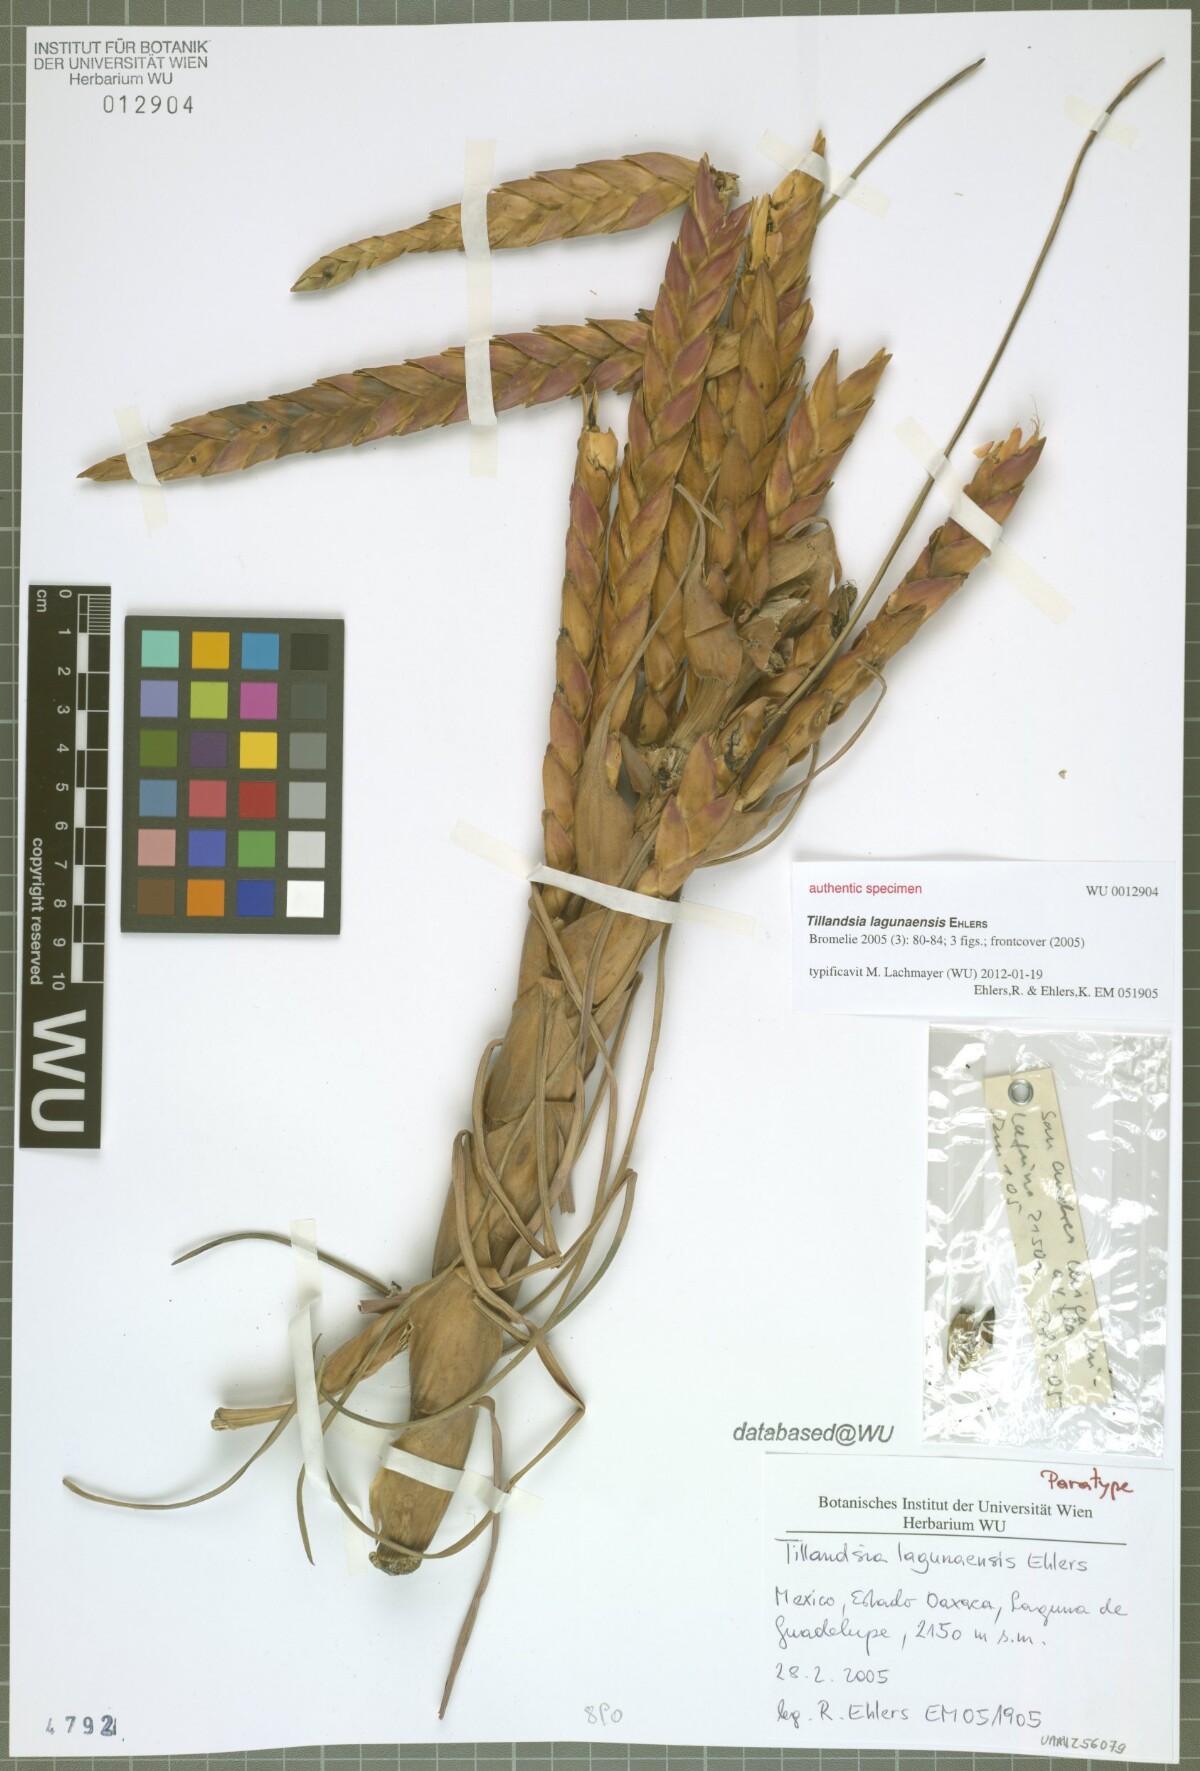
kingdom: Plantae
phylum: Tracheophyta
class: Liliopsida
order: Poales
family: Bromeliaceae
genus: Tillandsia
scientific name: Tillandsia lagunaensis
